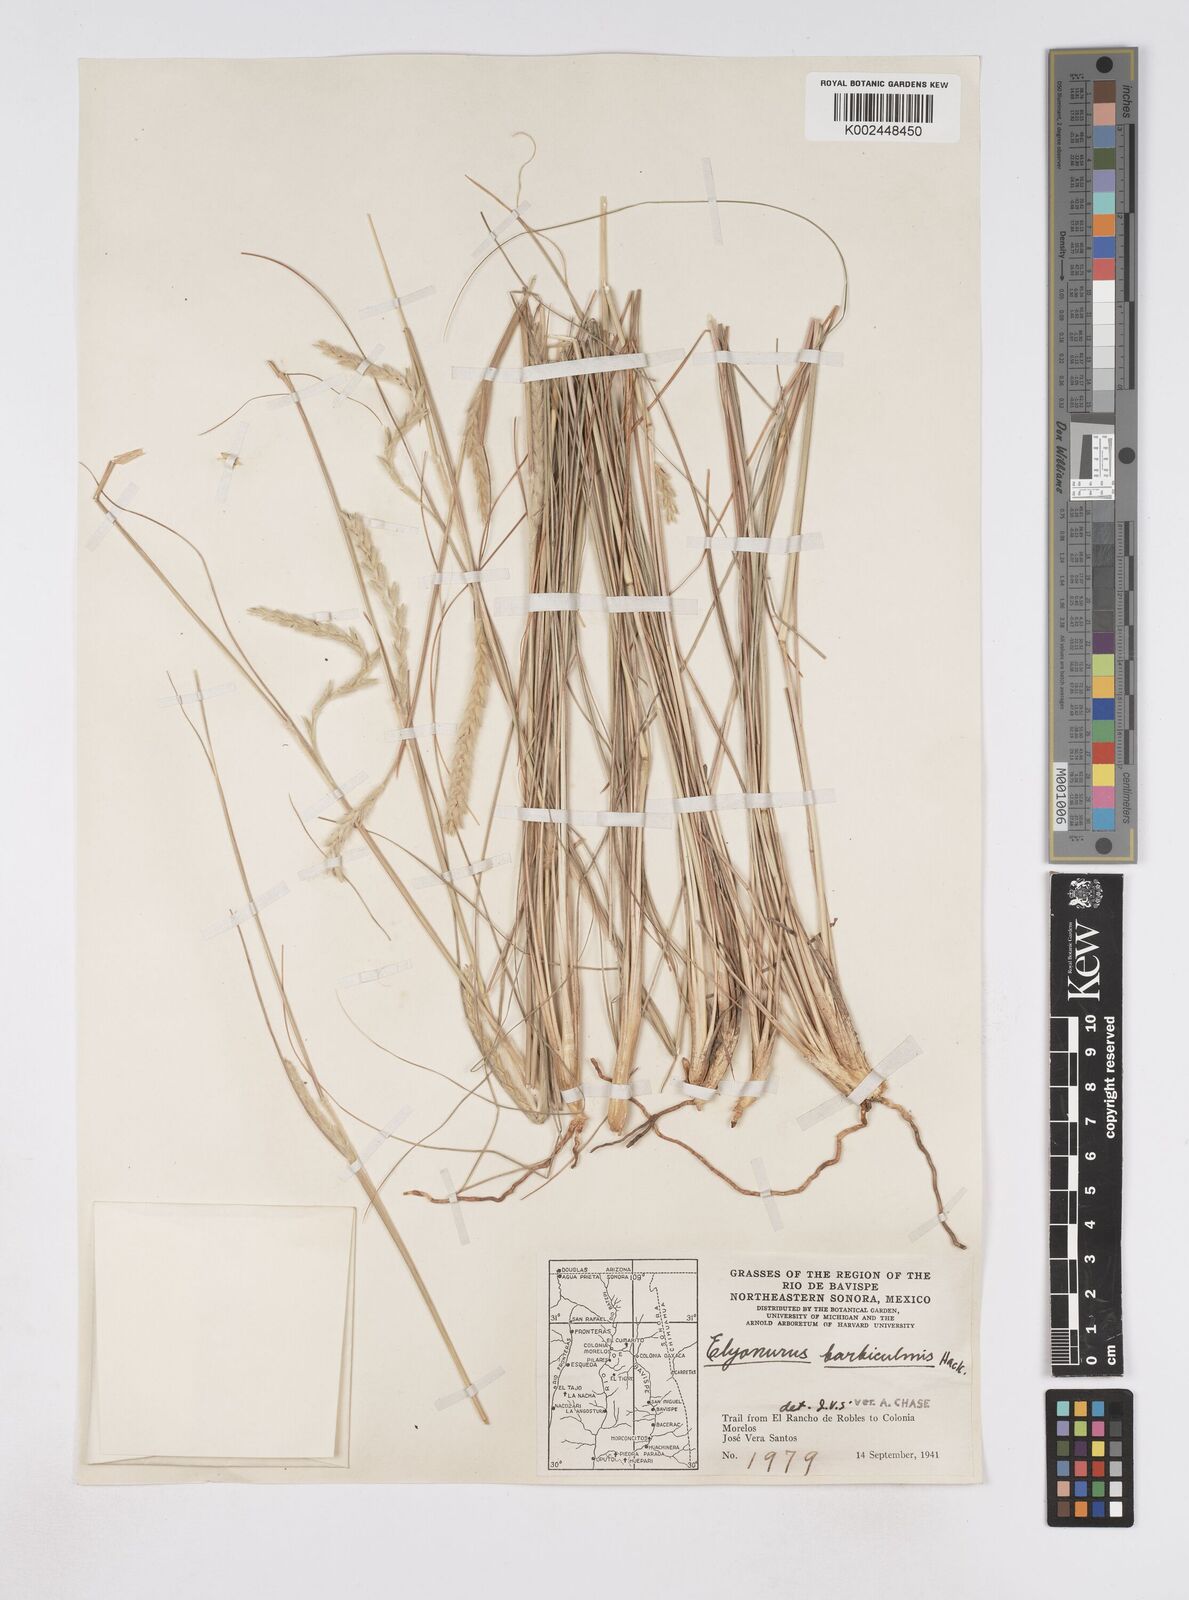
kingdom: Plantae
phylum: Tracheophyta
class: Liliopsida
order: Poales
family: Poaceae
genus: Elionurus
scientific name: Elionurus barbiculmis
